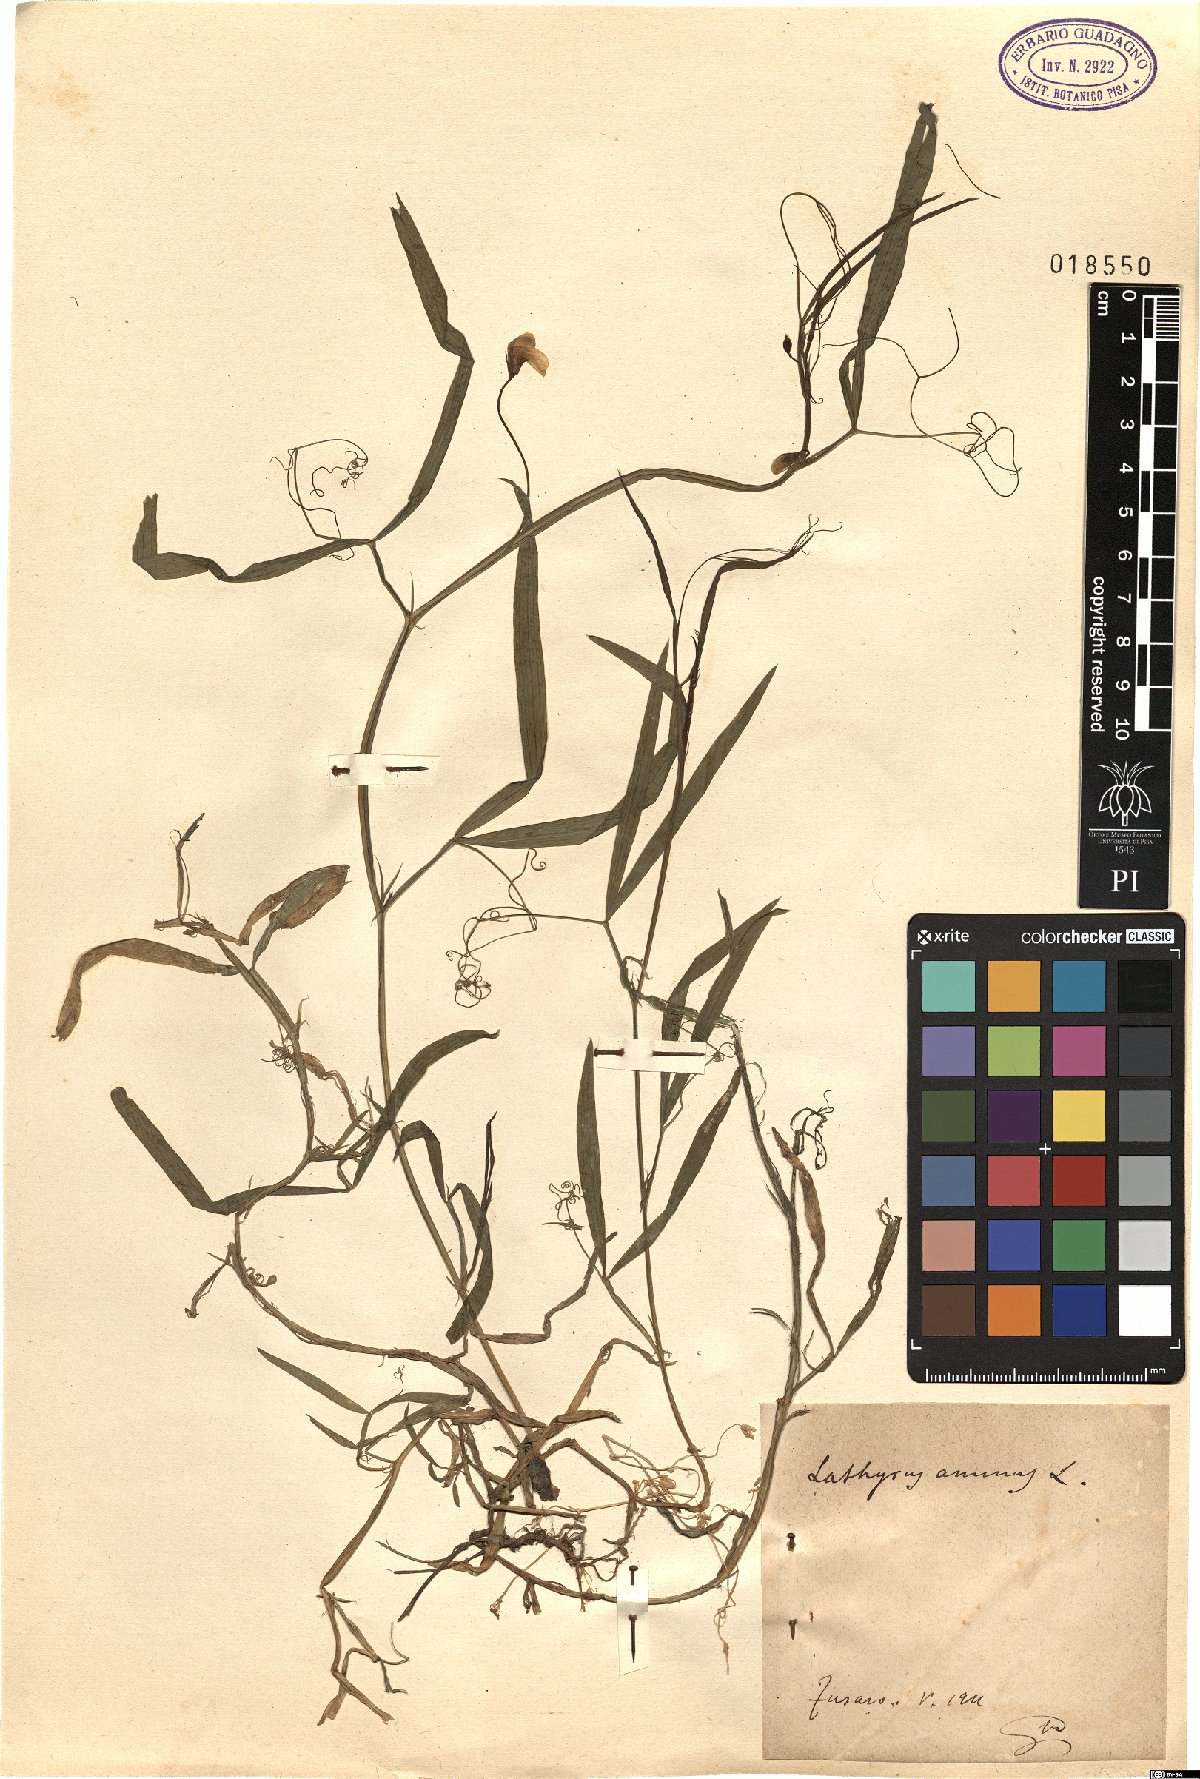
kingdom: Plantae
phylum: Tracheophyta
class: Magnoliopsida
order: Fabales
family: Fabaceae
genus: Lathyrus
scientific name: Lathyrus annuus
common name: Fodder pea
